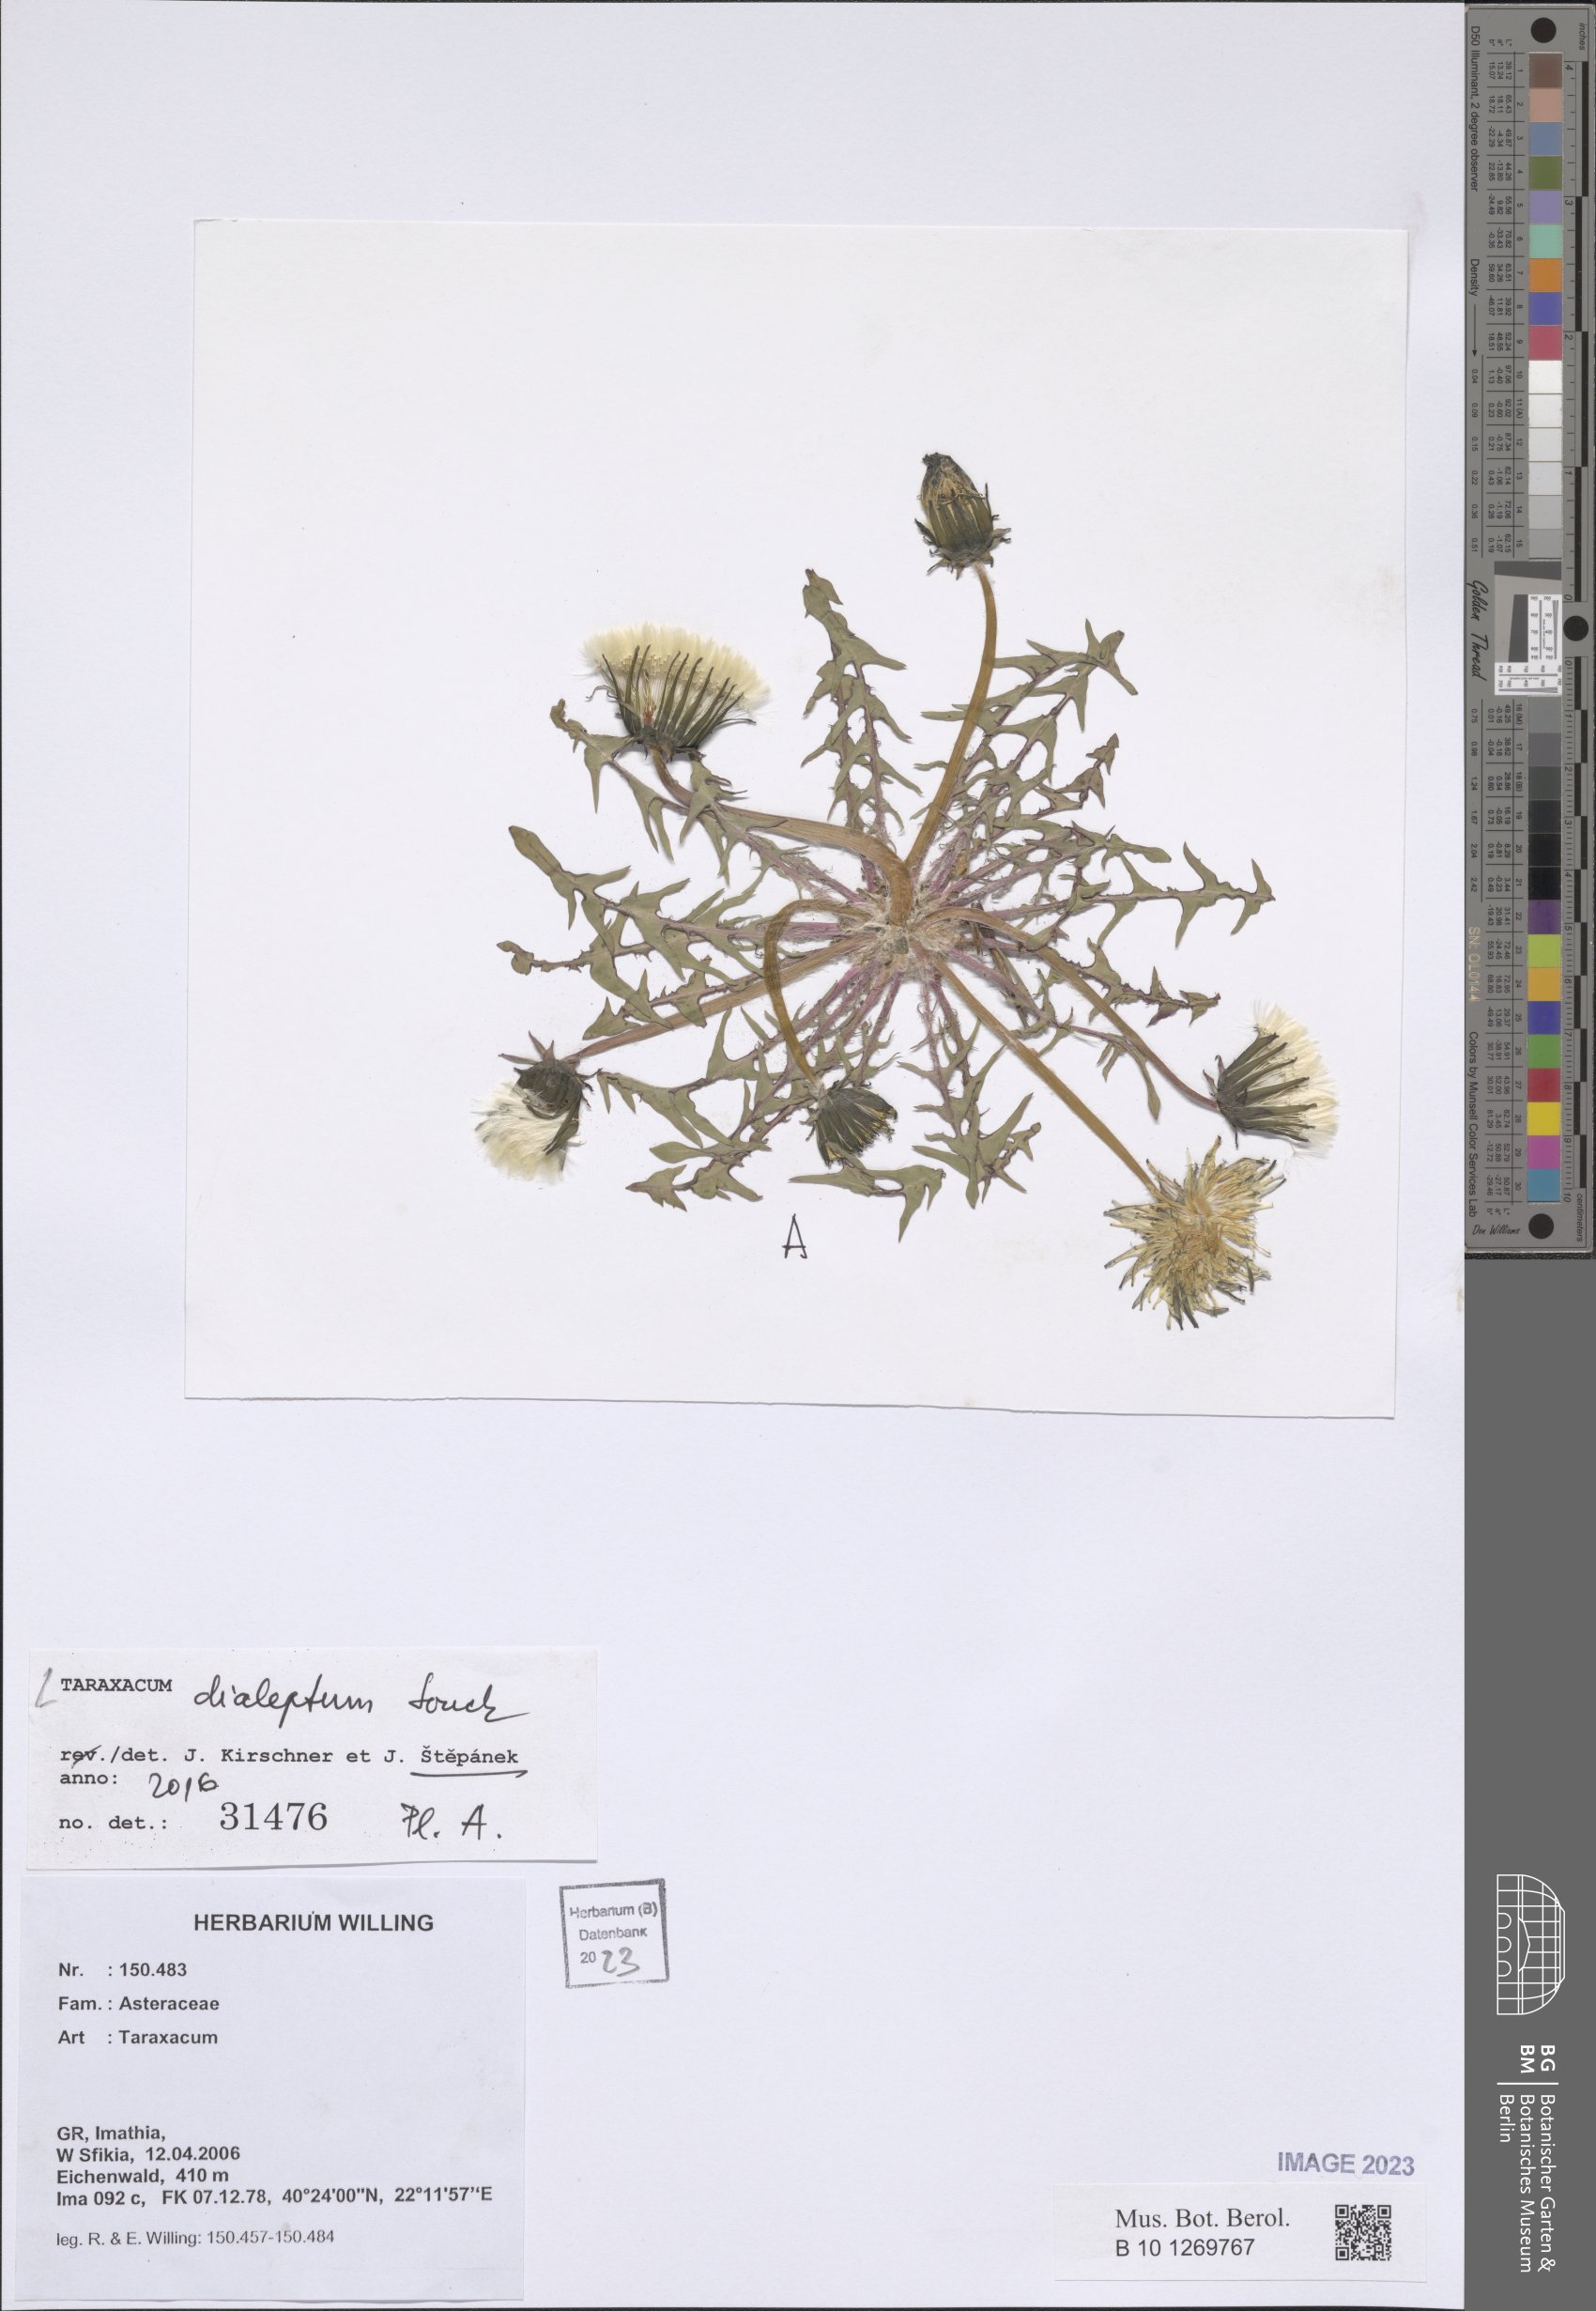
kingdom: Plantae
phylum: Tracheophyta
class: Magnoliopsida
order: Asterales
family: Asteraceae
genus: Taraxacum
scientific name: Taraxacum dialeptum
